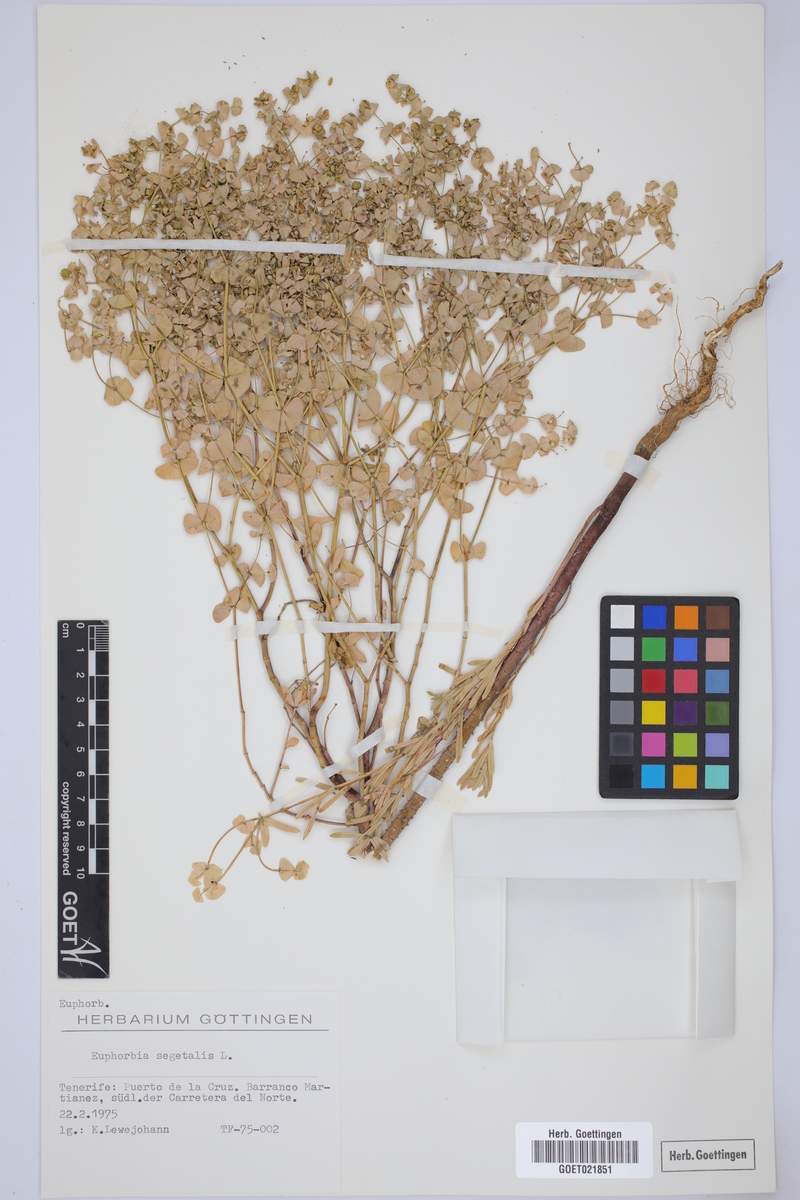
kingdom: Plantae
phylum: Tracheophyta
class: Magnoliopsida
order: Malpighiales
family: Euphorbiaceae
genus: Euphorbia
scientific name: Euphorbia segetalis
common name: Corn spurge
